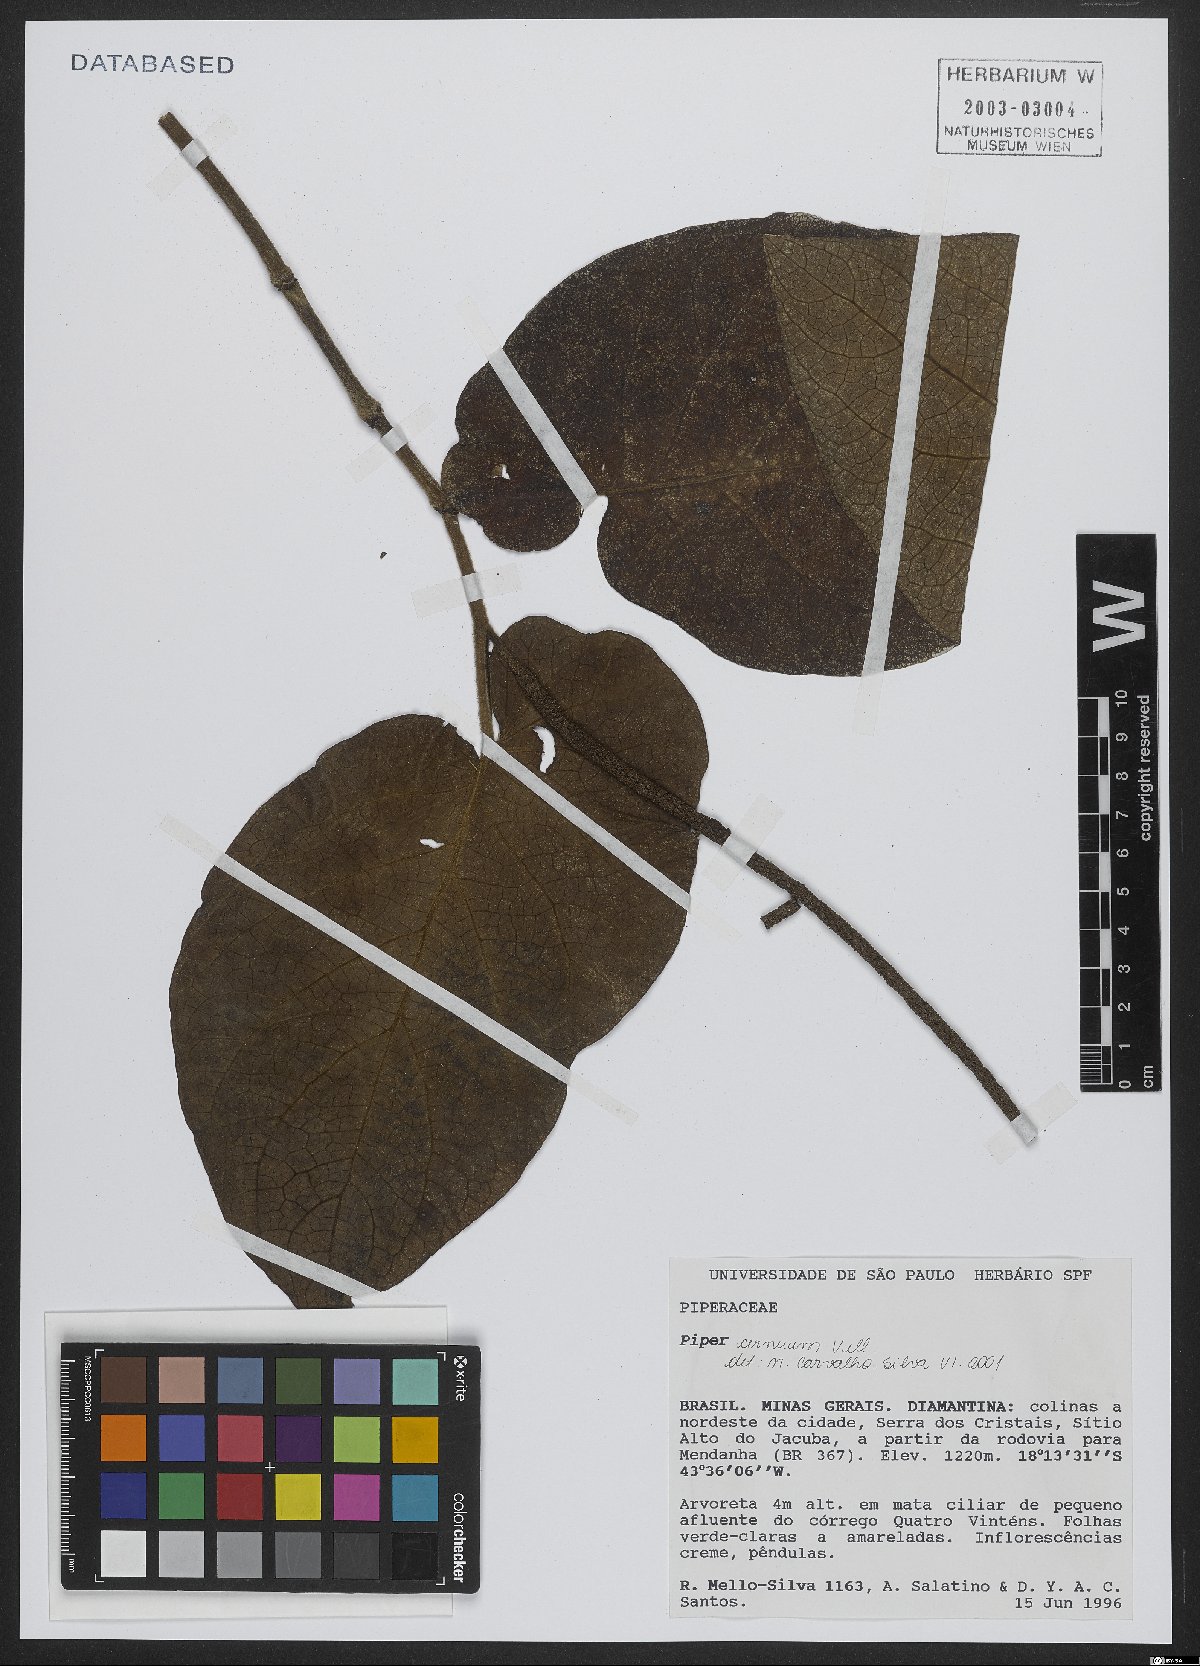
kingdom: Plantae
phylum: Tracheophyta
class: Magnoliopsida
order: Piperales
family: Piperaceae
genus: Piper
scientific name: Piper cernuum
